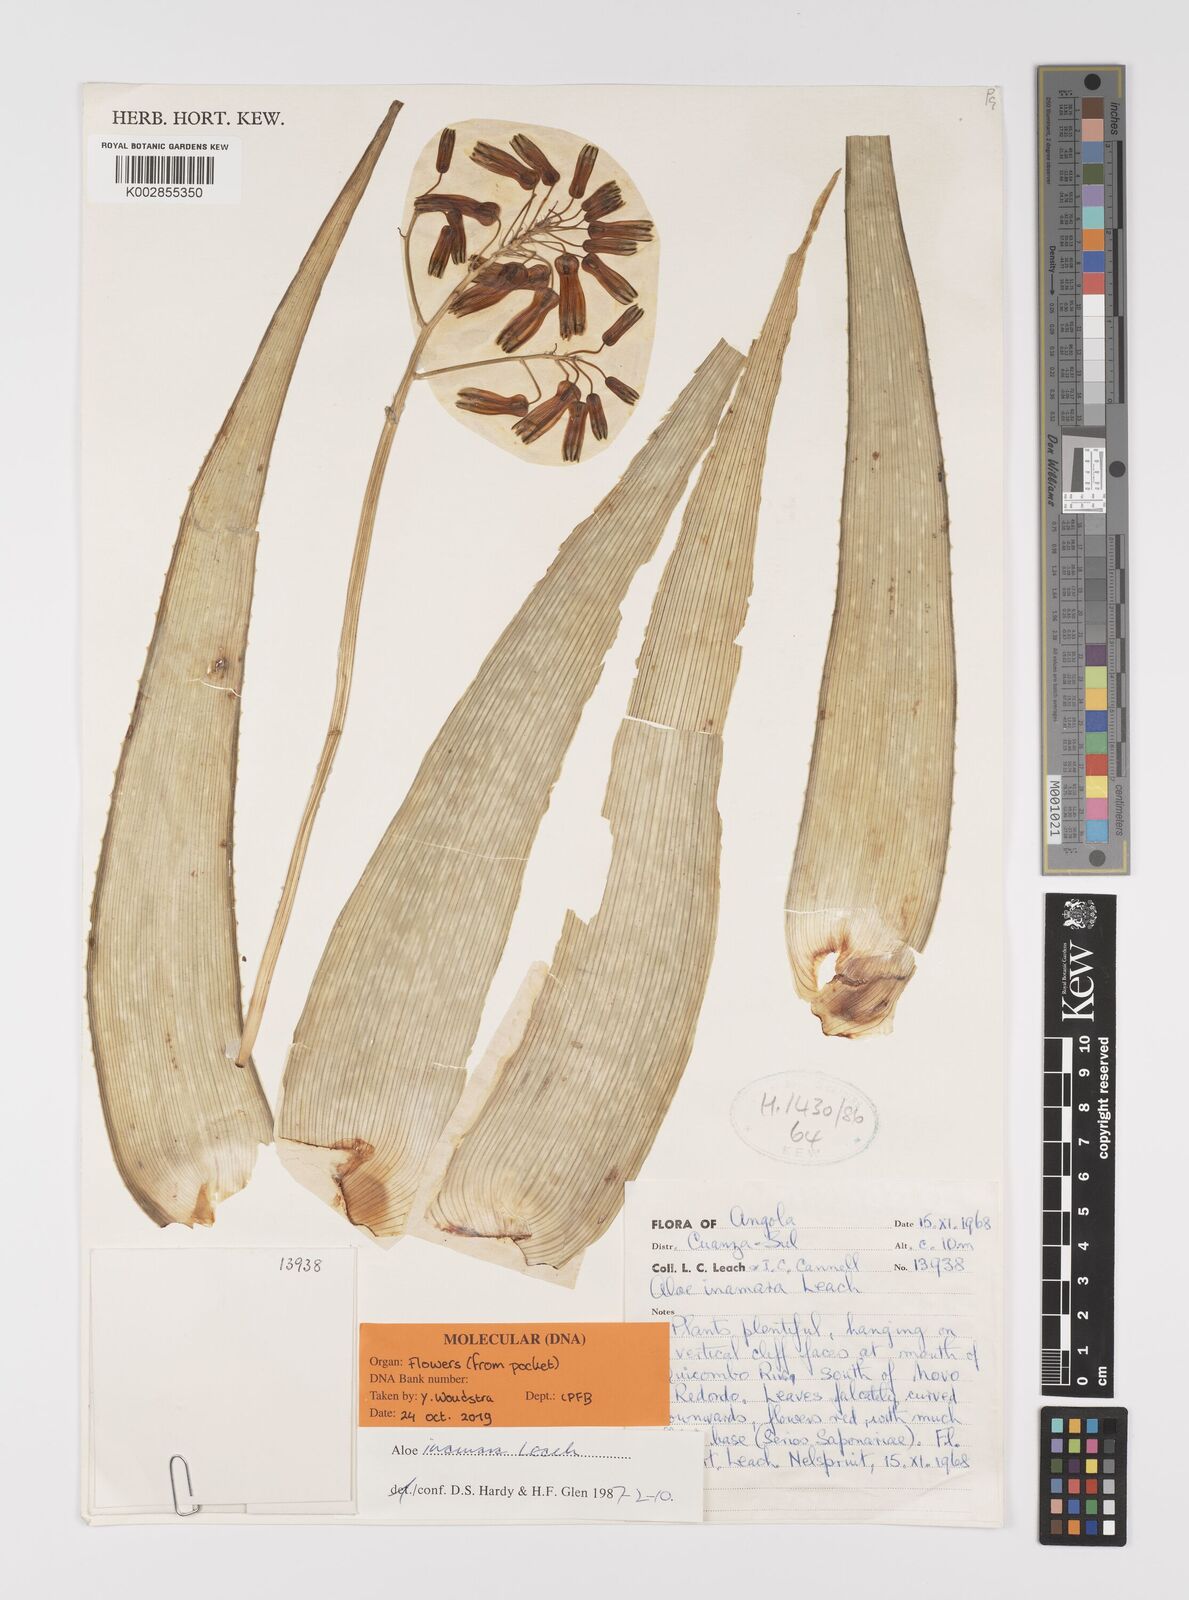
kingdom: Plantae
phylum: Tracheophyta
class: Liliopsida
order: Asparagales
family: Asphodelaceae
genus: Aloe
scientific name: Aloe inamara
